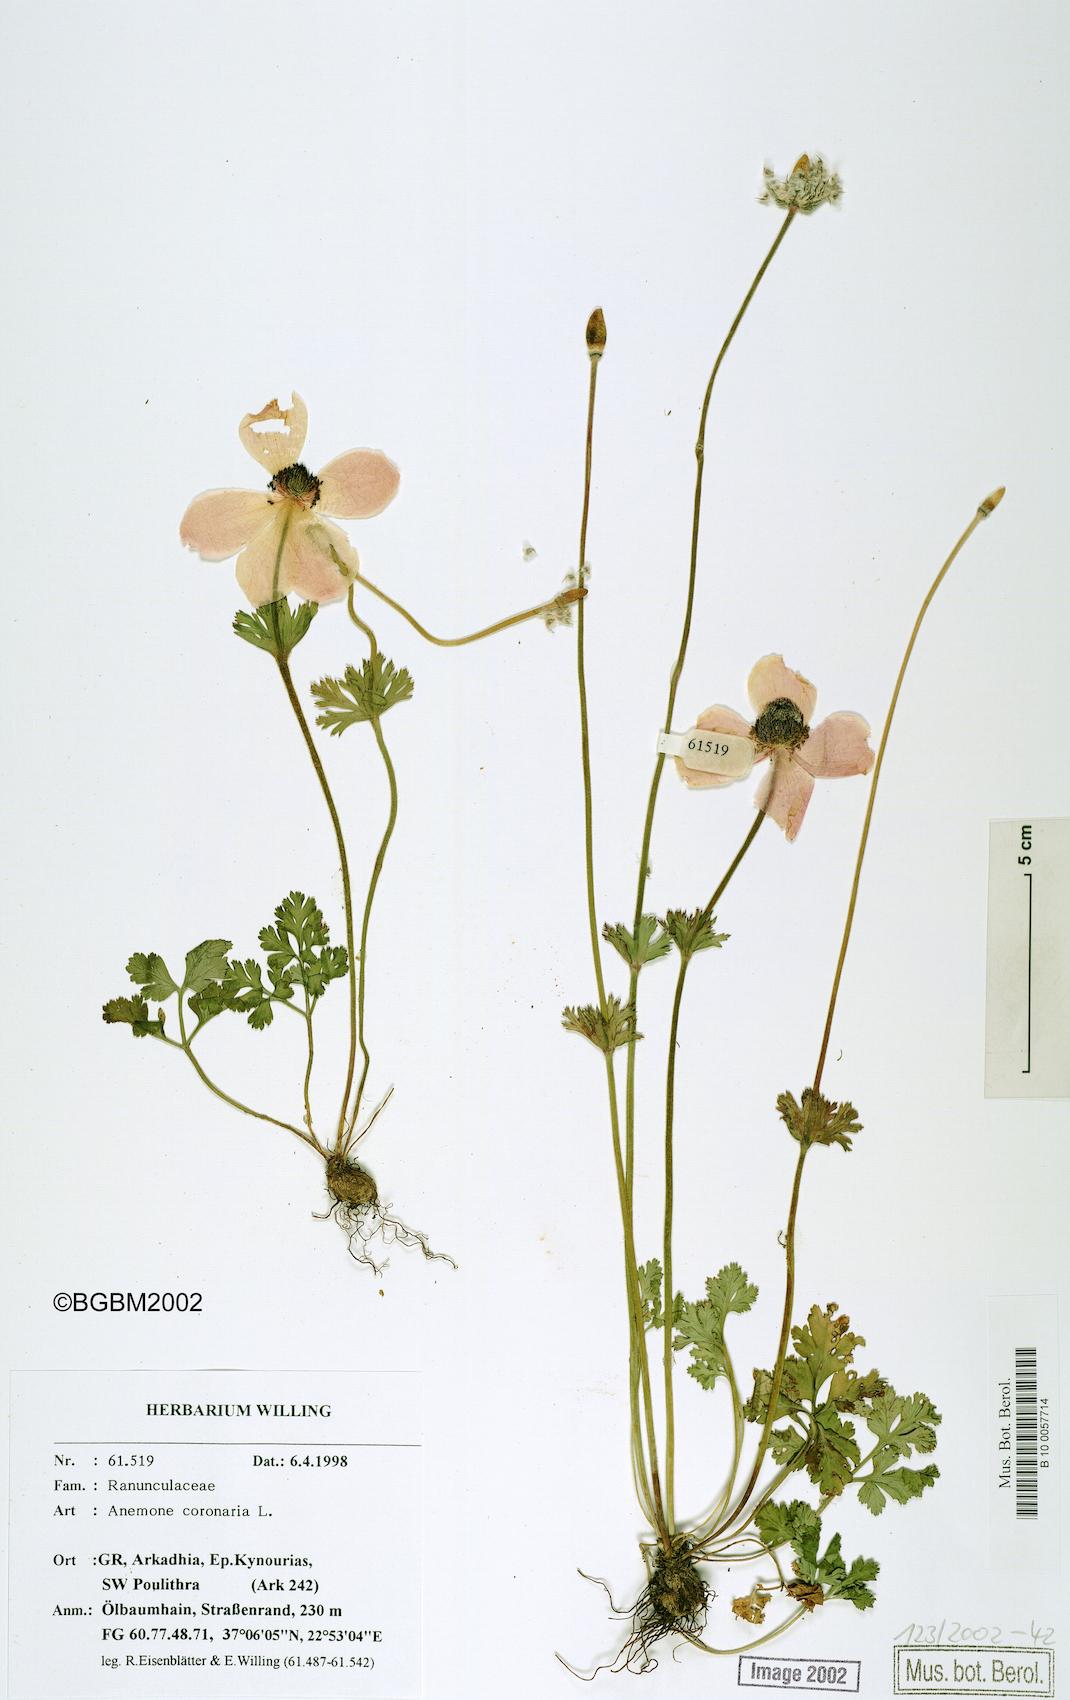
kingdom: Plantae
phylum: Tracheophyta
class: Magnoliopsida
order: Ranunculales
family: Ranunculaceae
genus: Anemone
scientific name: Anemone coronaria
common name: Poppy anemone
